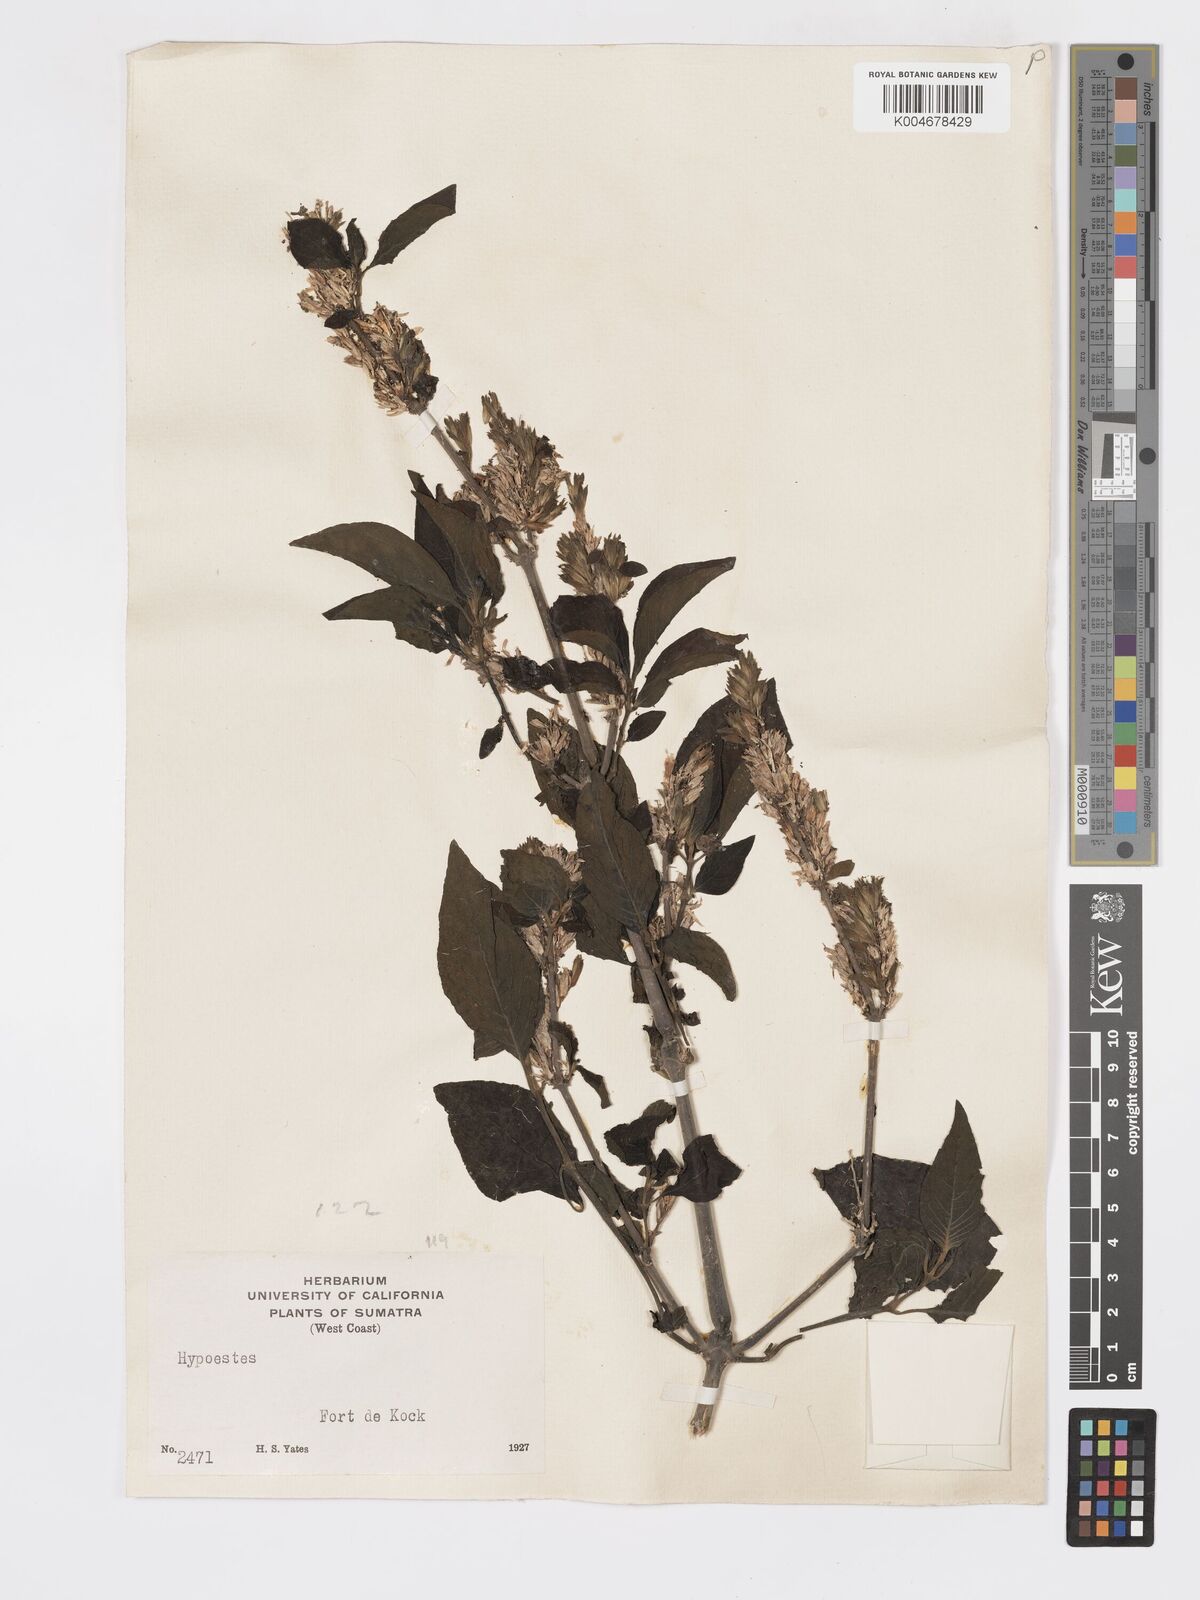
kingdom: Plantae
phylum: Tracheophyta
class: Magnoliopsida
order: Lamiales
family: Acanthaceae
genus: Hypoestes
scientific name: Hypoestes
